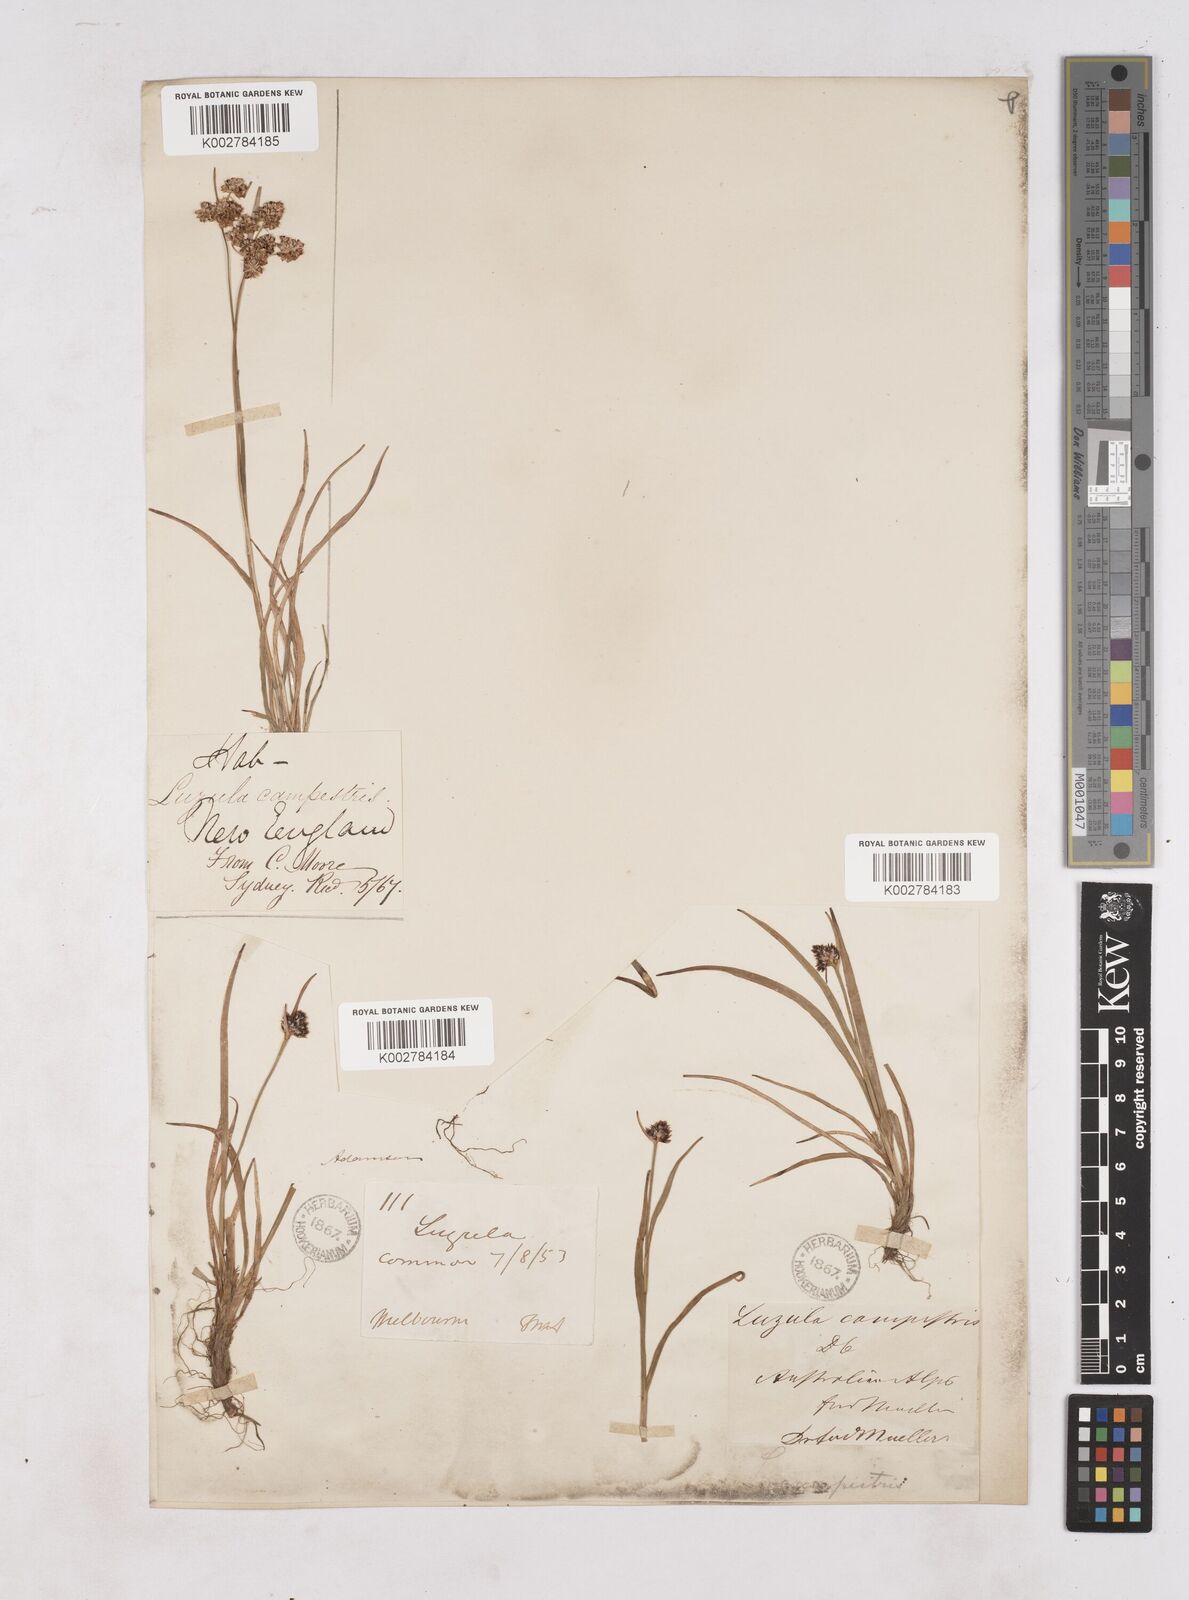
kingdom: Plantae
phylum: Tracheophyta
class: Liliopsida
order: Poales
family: Juncaceae
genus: Luzula
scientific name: Luzula campestris
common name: Field wood-rush
